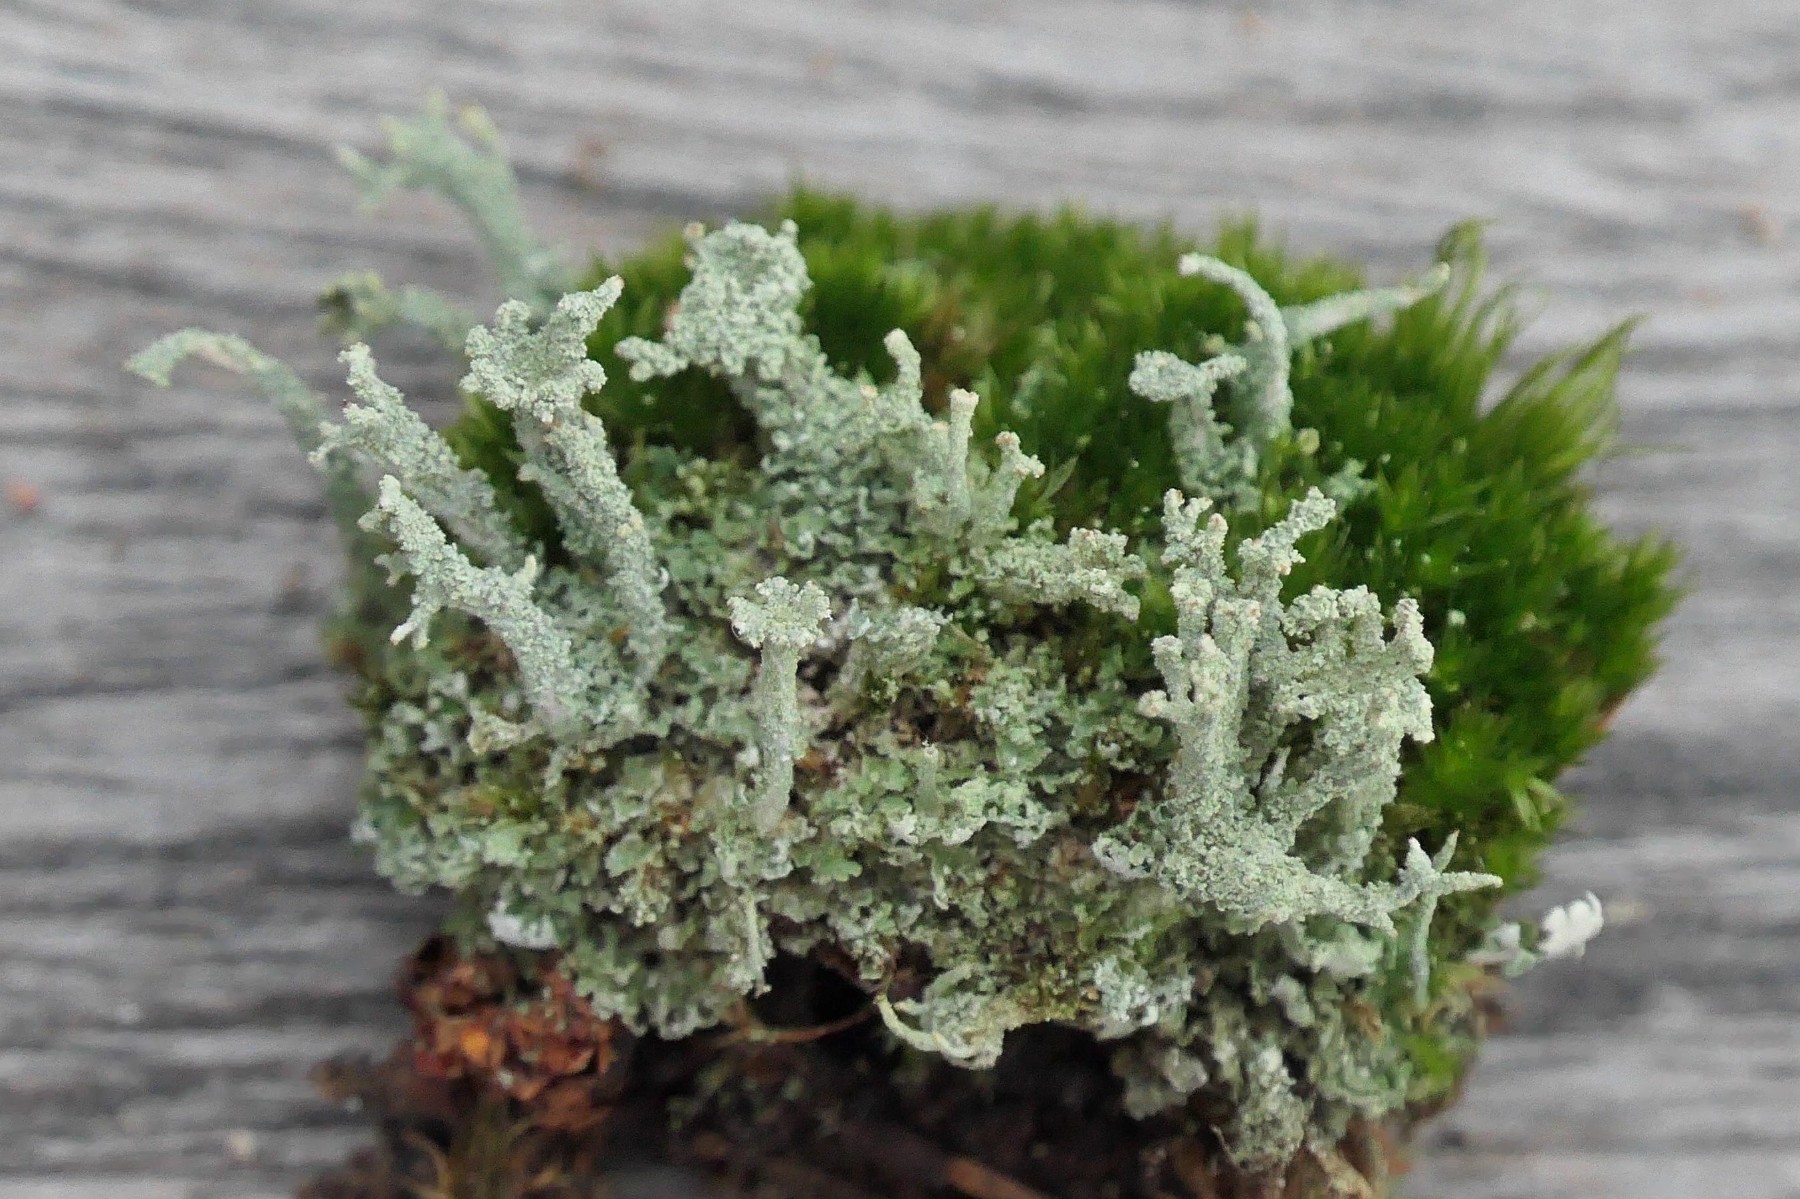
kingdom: Fungi
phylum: Ascomycota
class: Lecanoromycetes
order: Lecanorales
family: Cladoniaceae
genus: Cladonia
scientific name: Cladonia ramulosa
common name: kliddet bægerlav
